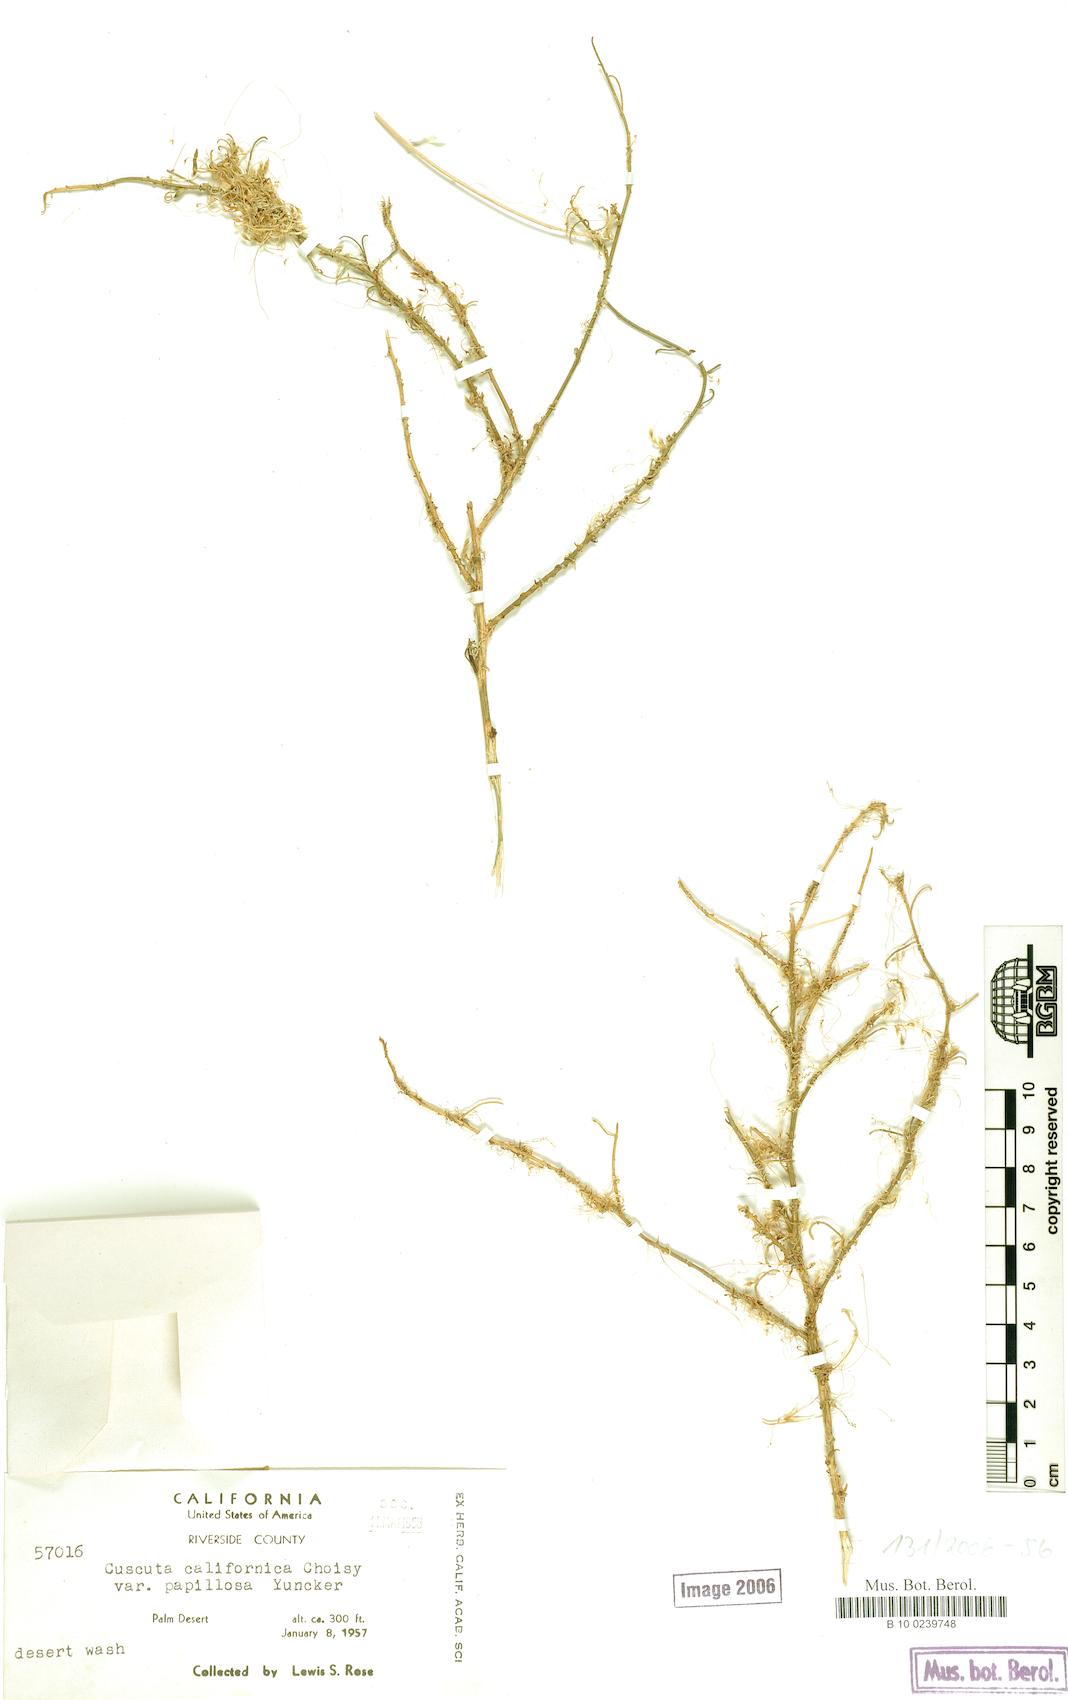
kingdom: Plantae
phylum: Tracheophyta
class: Magnoliopsida
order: Solanales
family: Convolvulaceae
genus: Cuscuta
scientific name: Cuscuta californica
